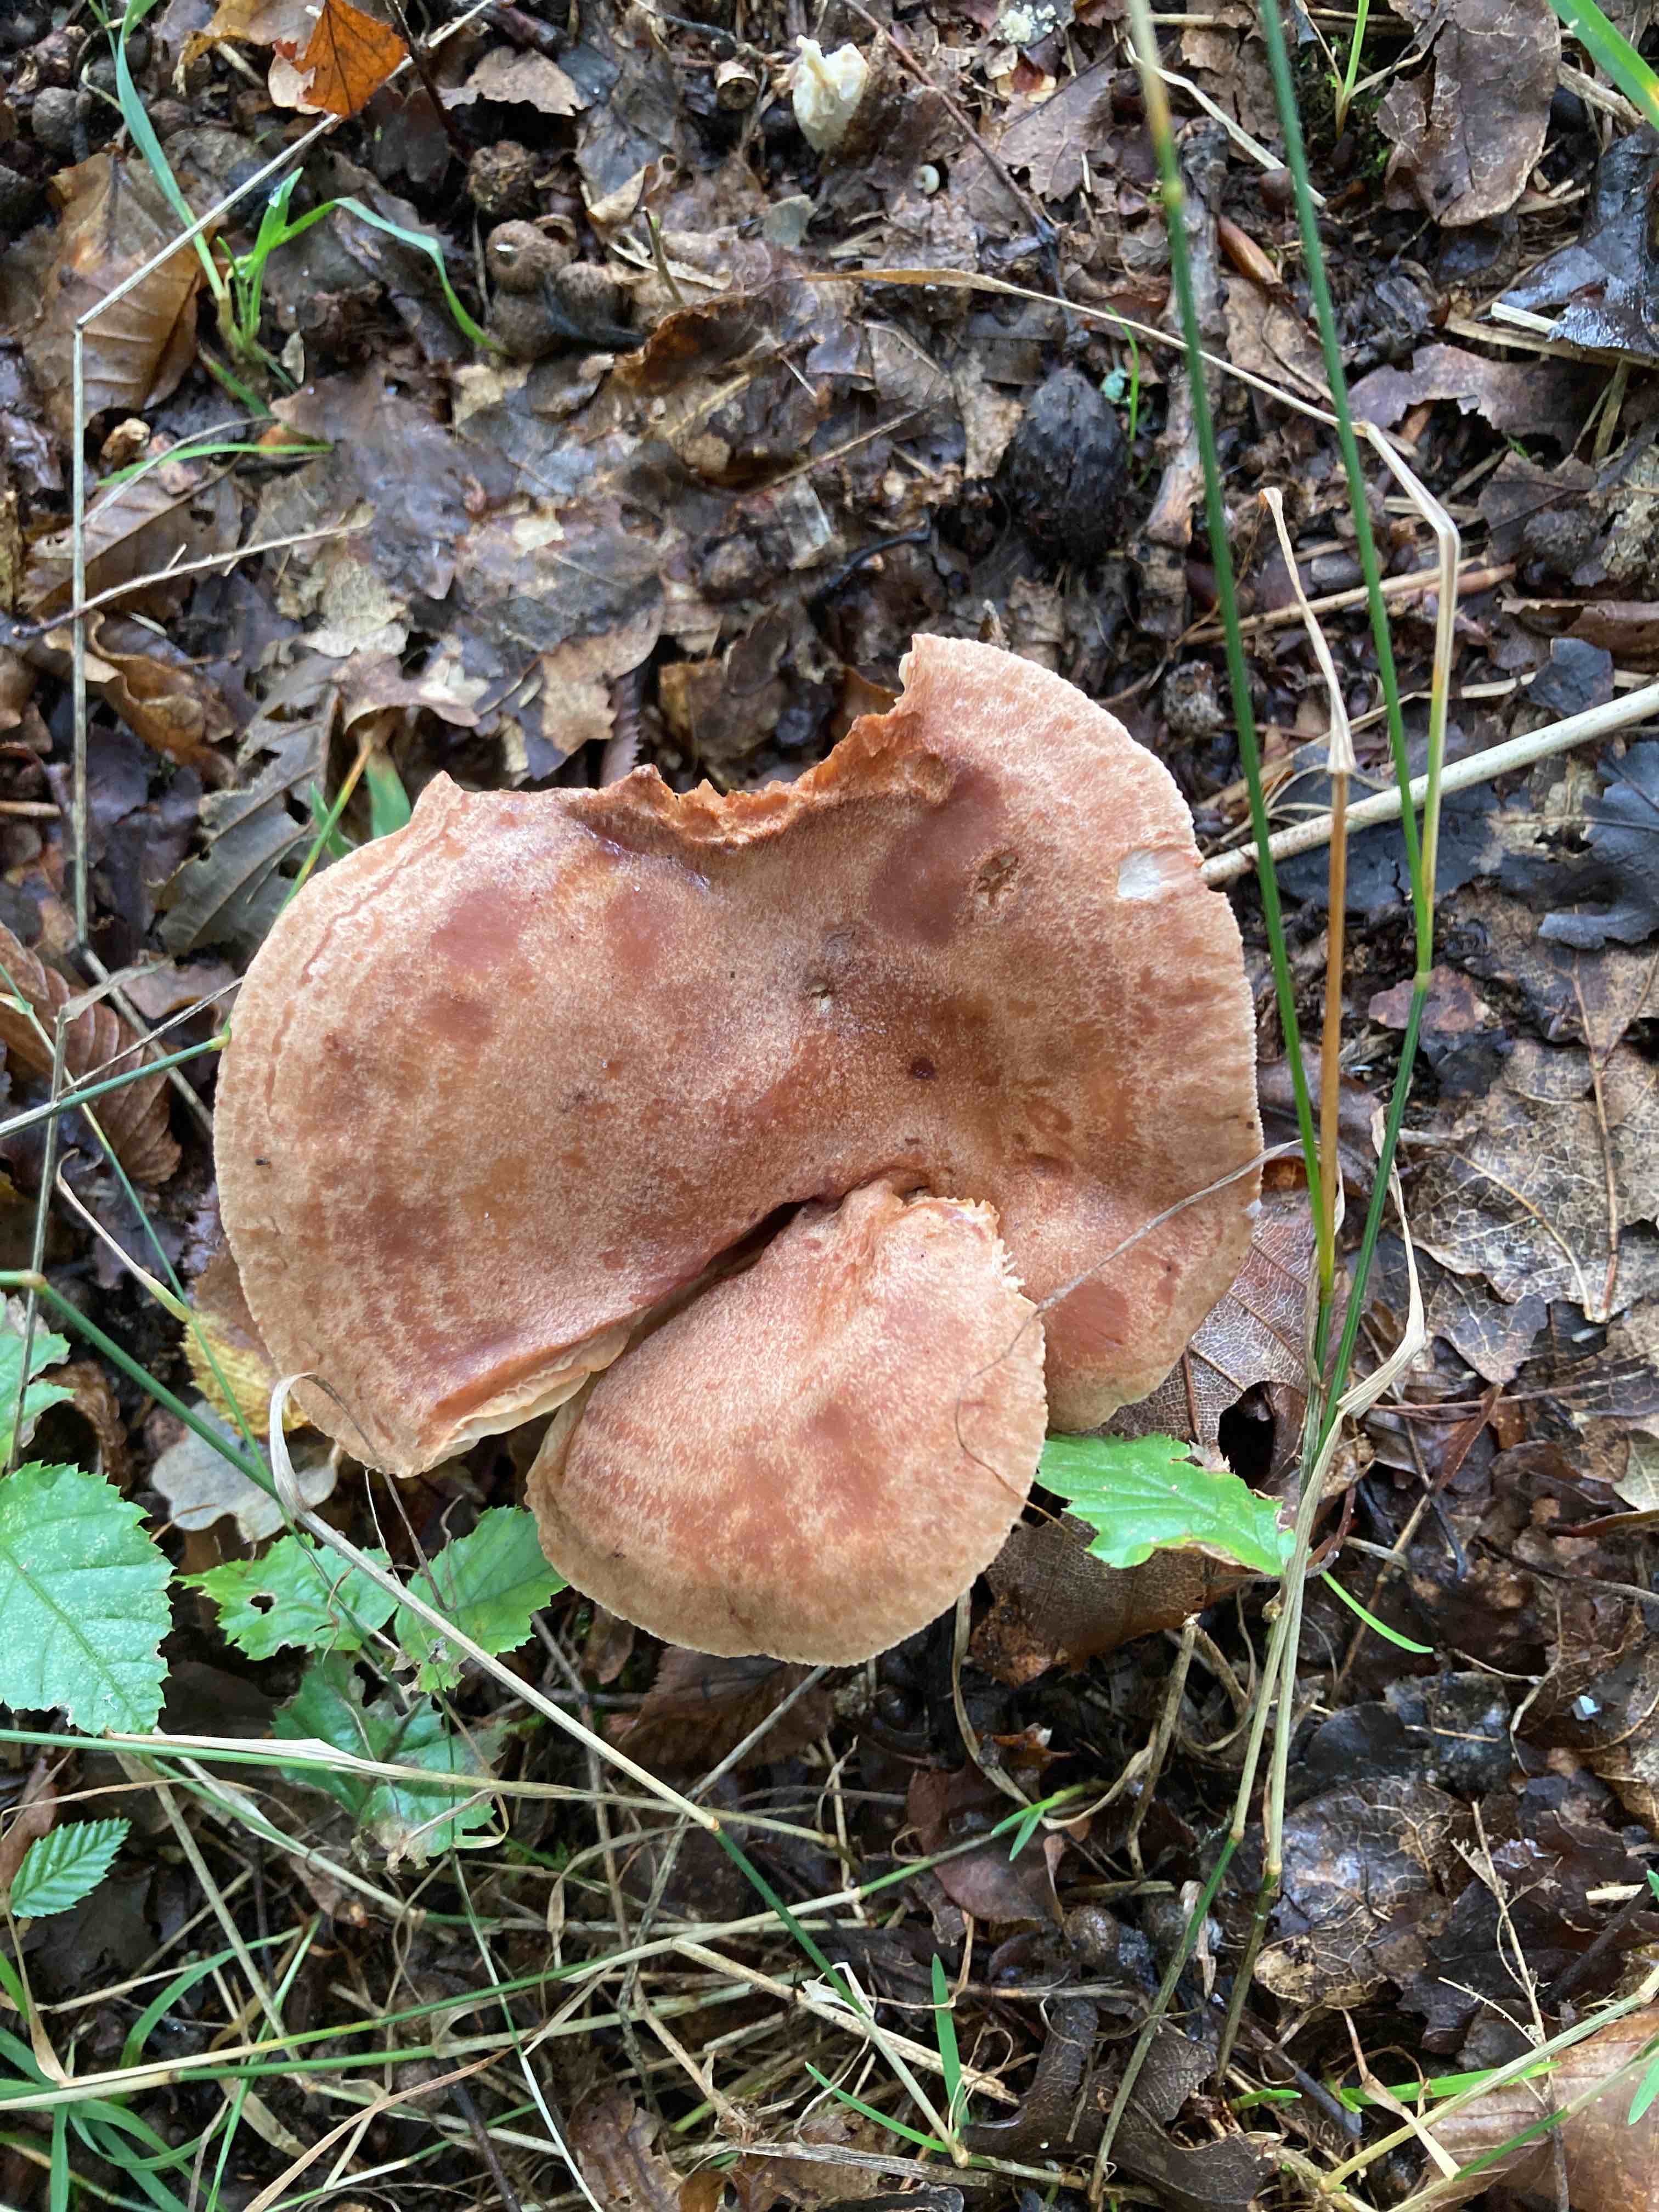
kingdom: Fungi
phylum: Basidiomycota
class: Agaricomycetes
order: Russulales
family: Russulaceae
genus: Lactarius
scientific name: Lactarius quietus
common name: ege-mælkehat
